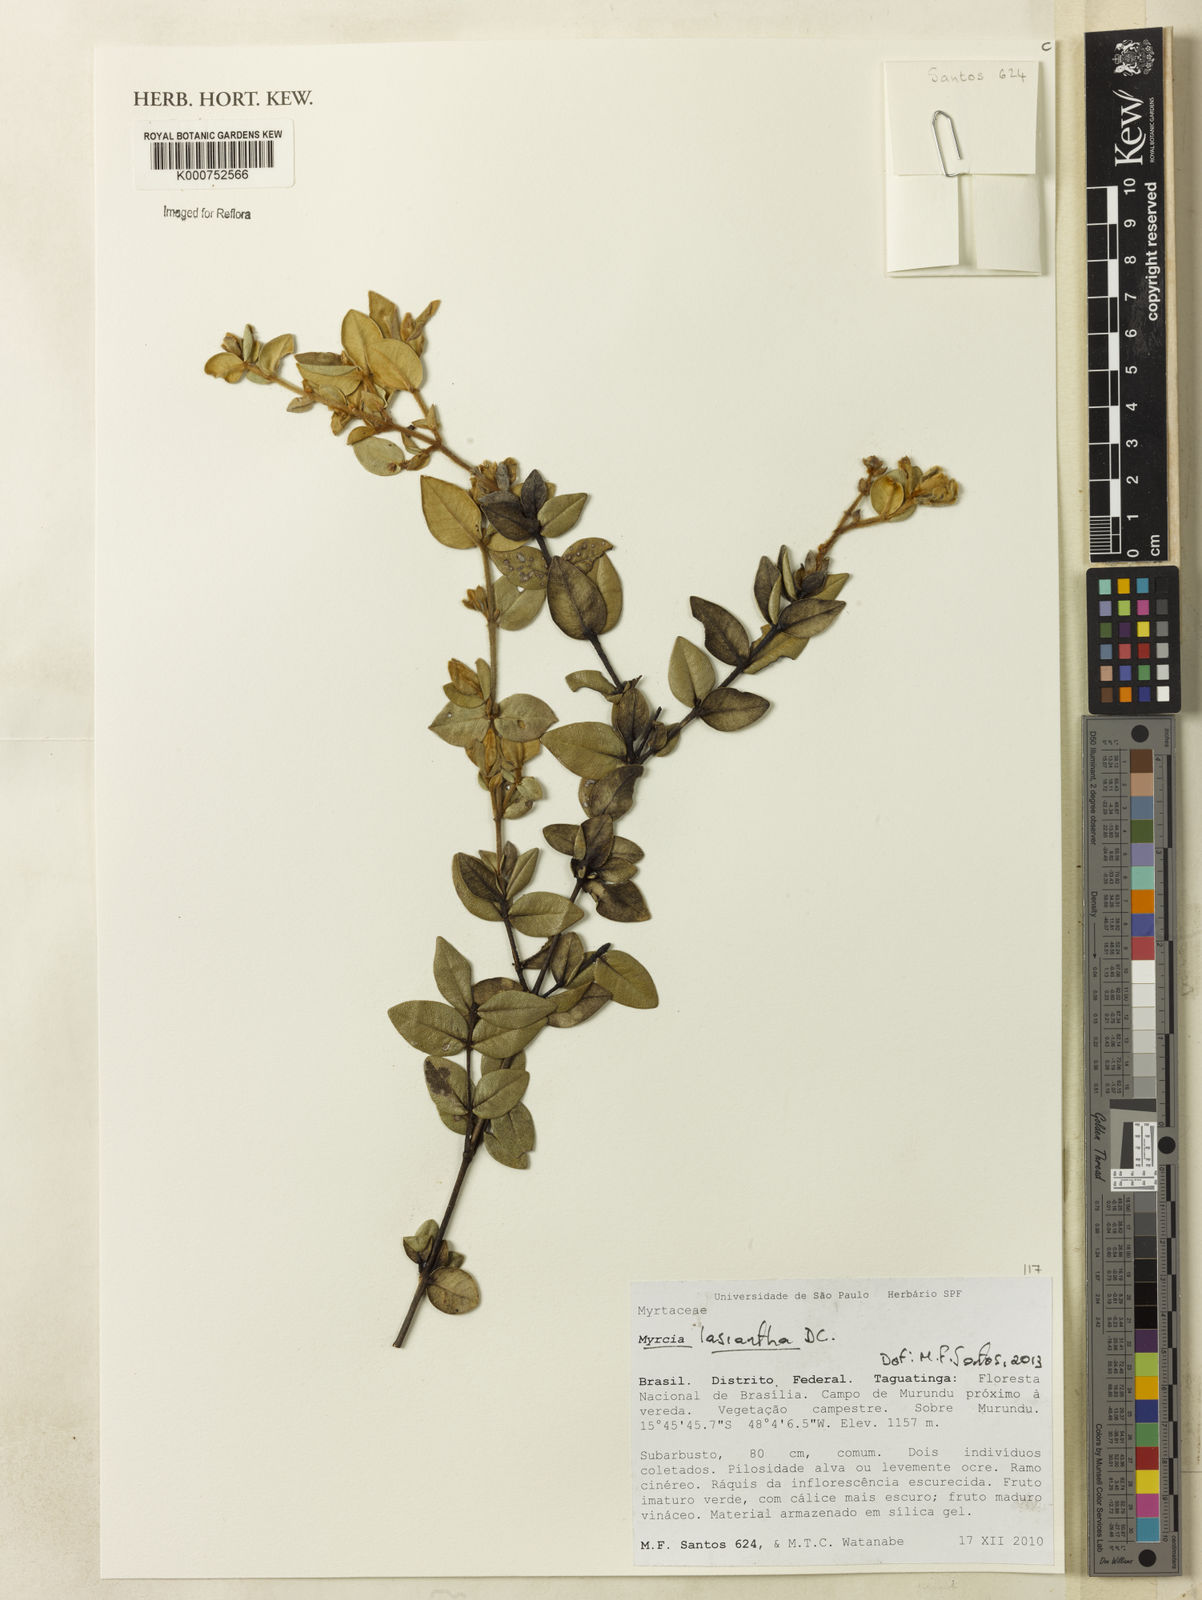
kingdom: Plantae
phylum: Tracheophyta
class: Magnoliopsida
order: Myrtales
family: Myrtaceae
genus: Myrcia
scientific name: Myrcia lasiantha
